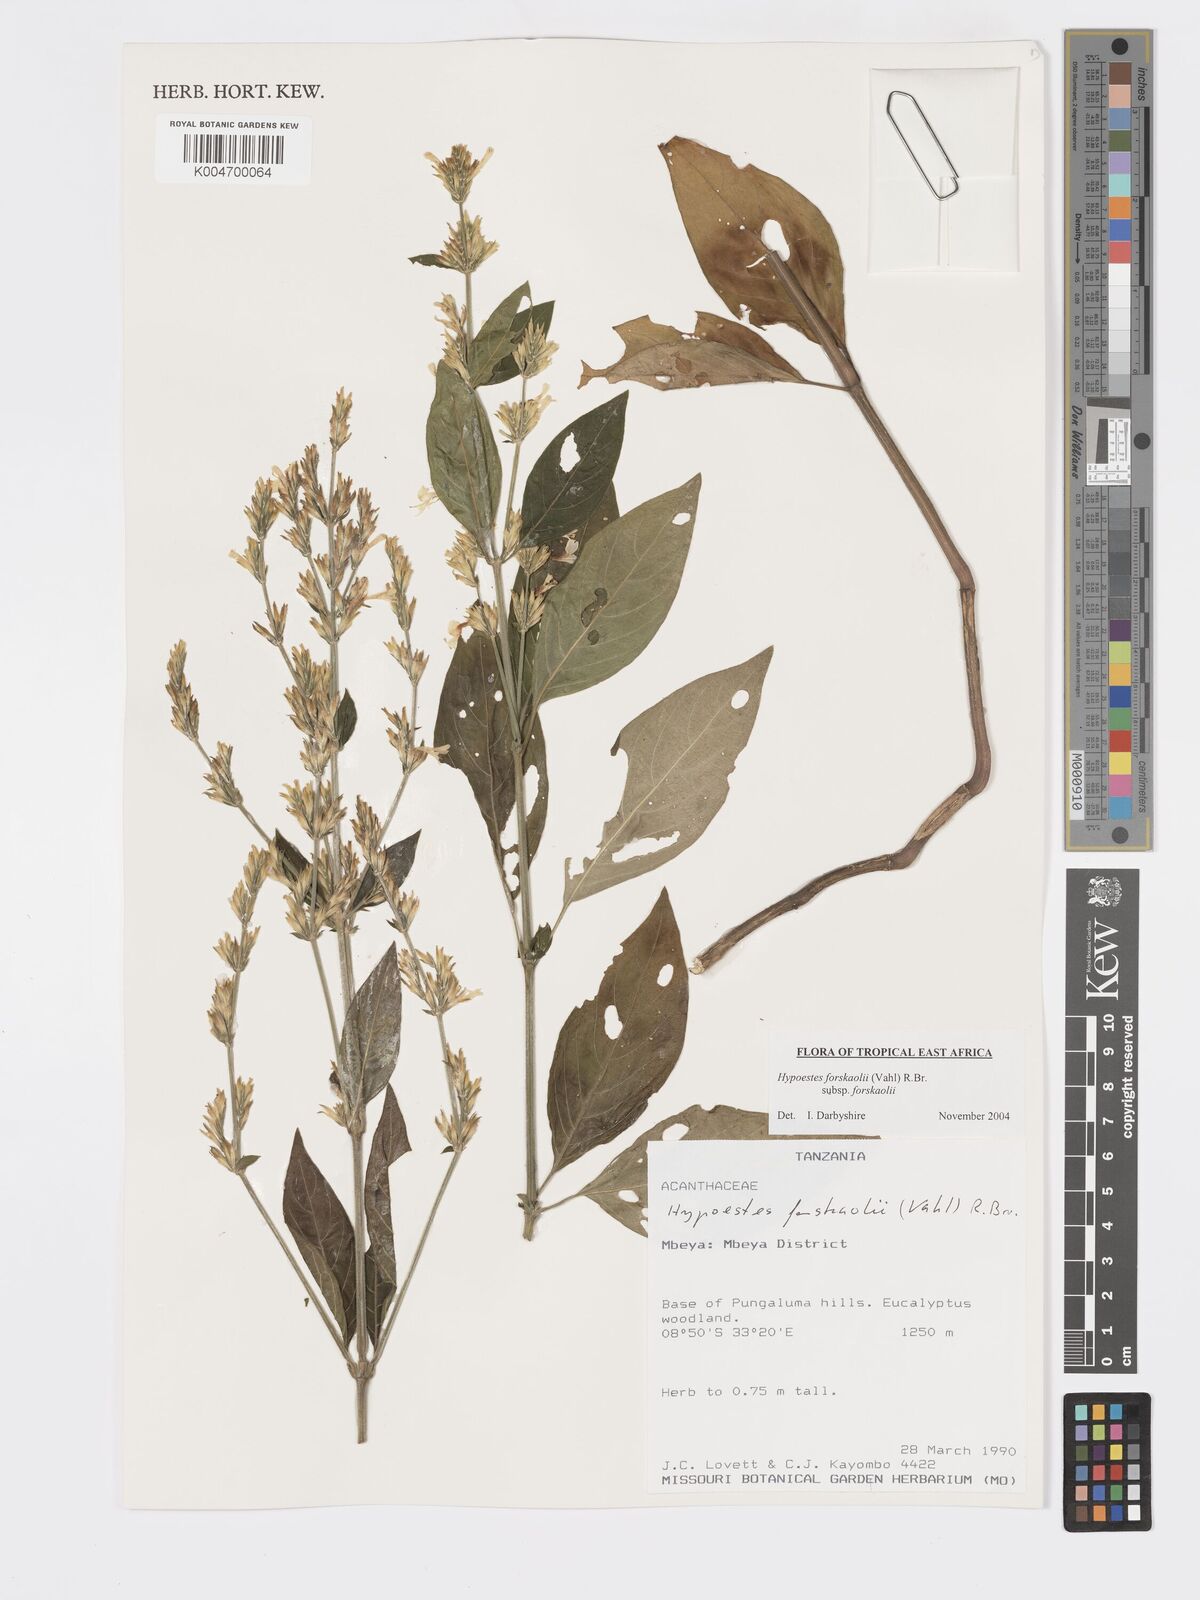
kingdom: Plantae
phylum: Tracheophyta
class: Magnoliopsida
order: Lamiales
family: Acanthaceae
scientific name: Acanthaceae
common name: Acanthaceae
